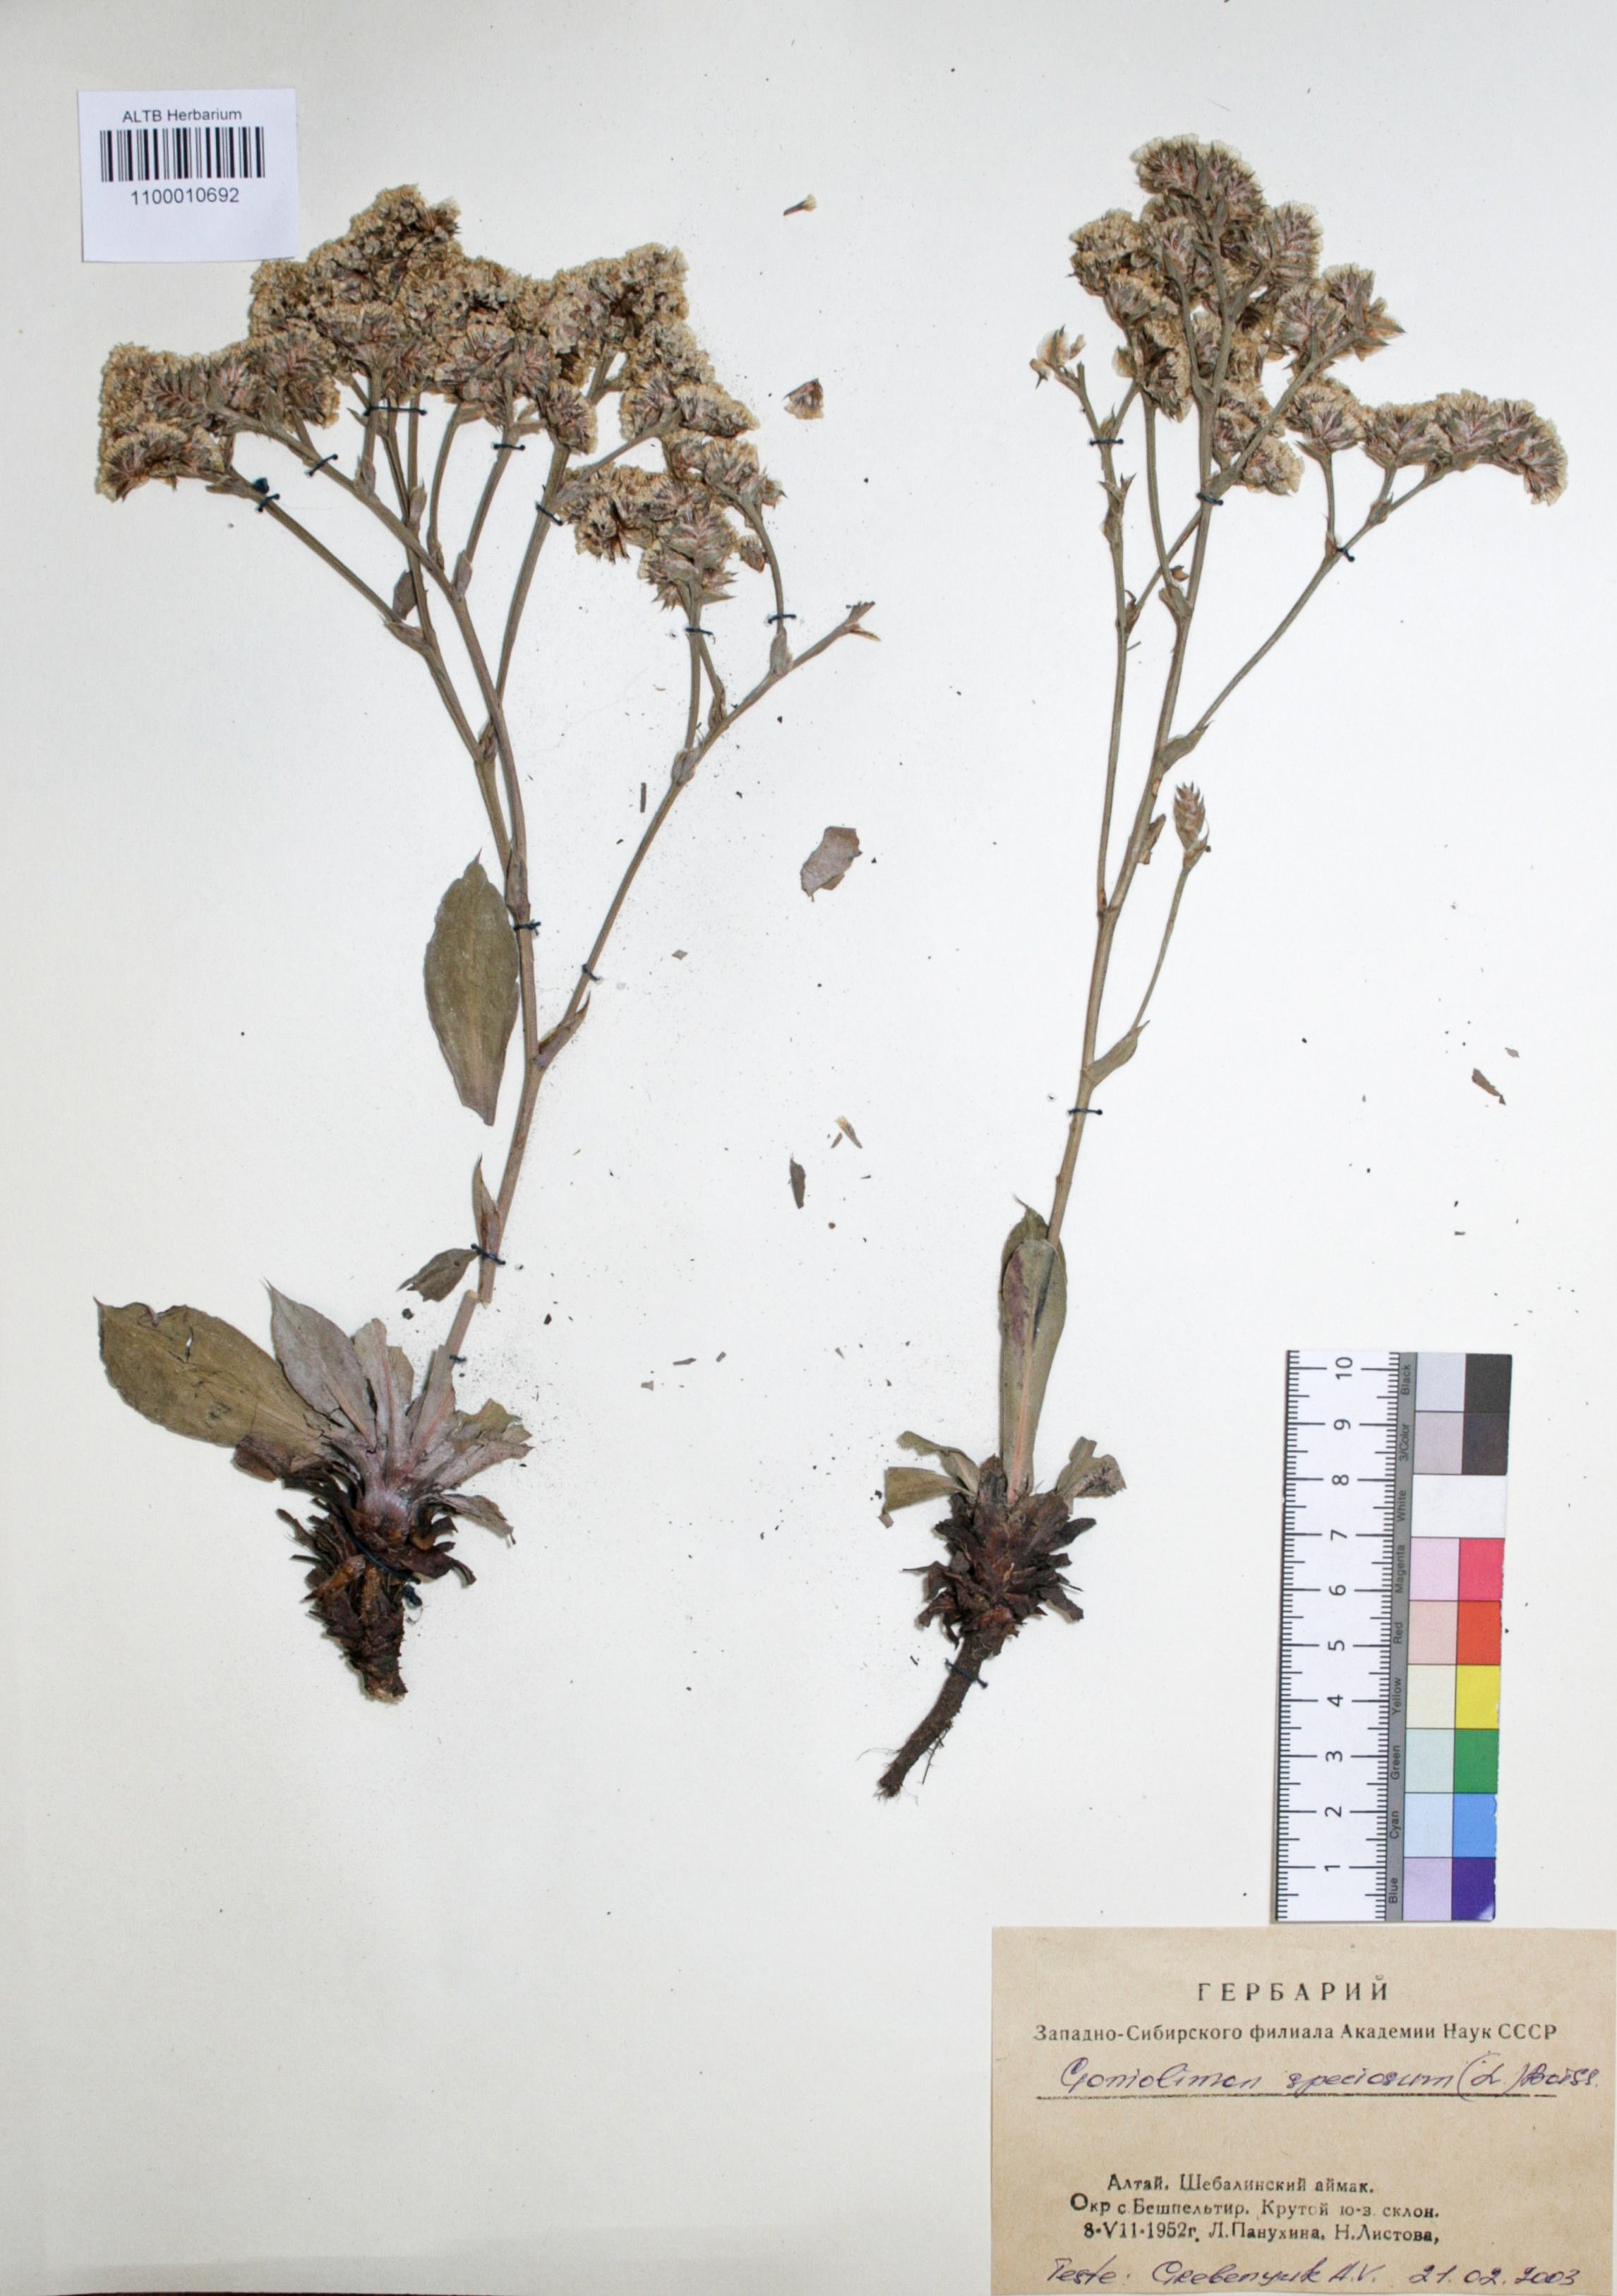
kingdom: Plantae
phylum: Tracheophyta
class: Magnoliopsida
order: Caryophyllales
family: Plumbaginaceae
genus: Goniolimon
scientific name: Goniolimon speciosum
